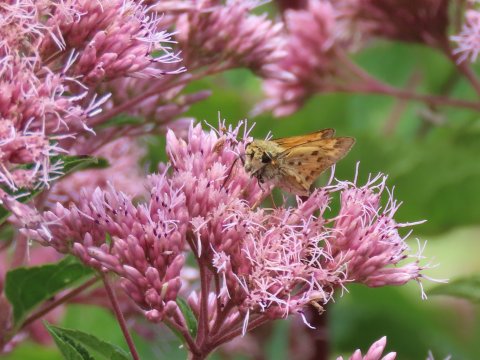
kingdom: Animalia
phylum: Arthropoda
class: Insecta
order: Lepidoptera
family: Hesperiidae
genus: Hylephila
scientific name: Hylephila phyleus
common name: Fiery Skipper
